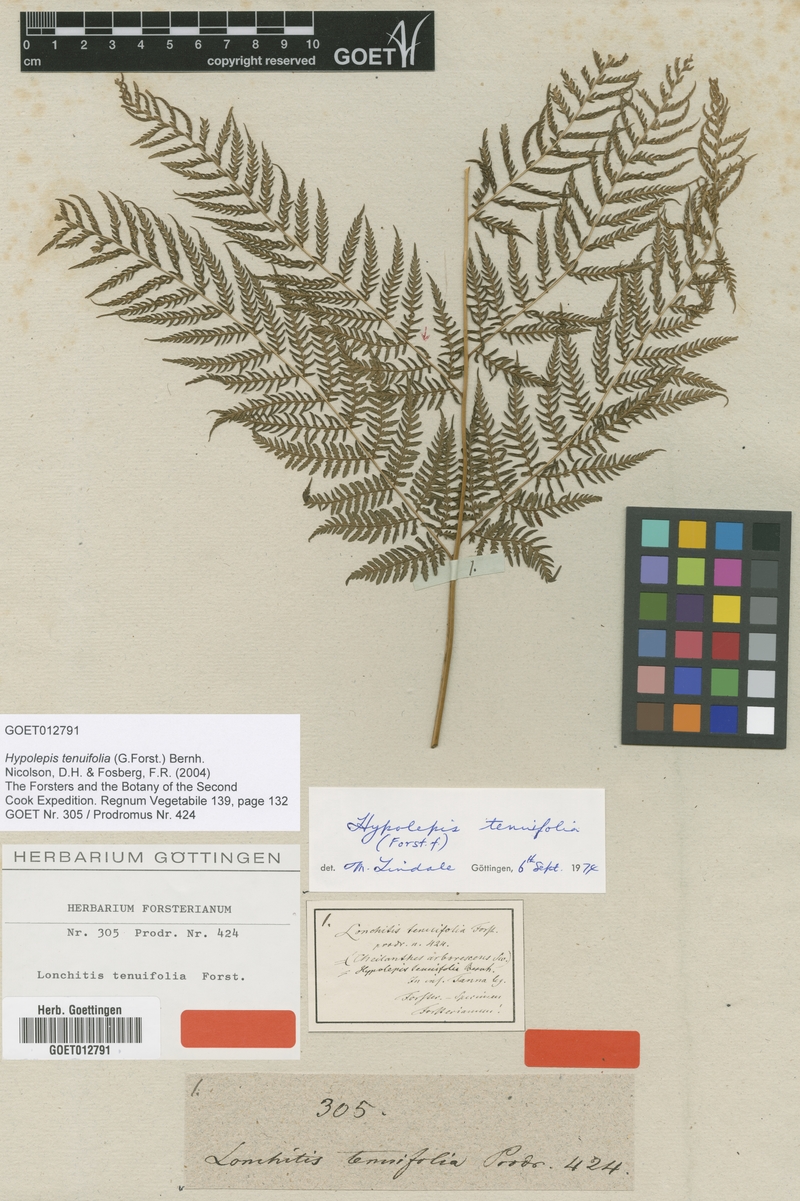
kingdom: Plantae
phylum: Tracheophyta
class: Polypodiopsida
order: Polypodiales
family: Dennstaedtiaceae
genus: Hypolepis
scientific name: Hypolepis tenuifolia
